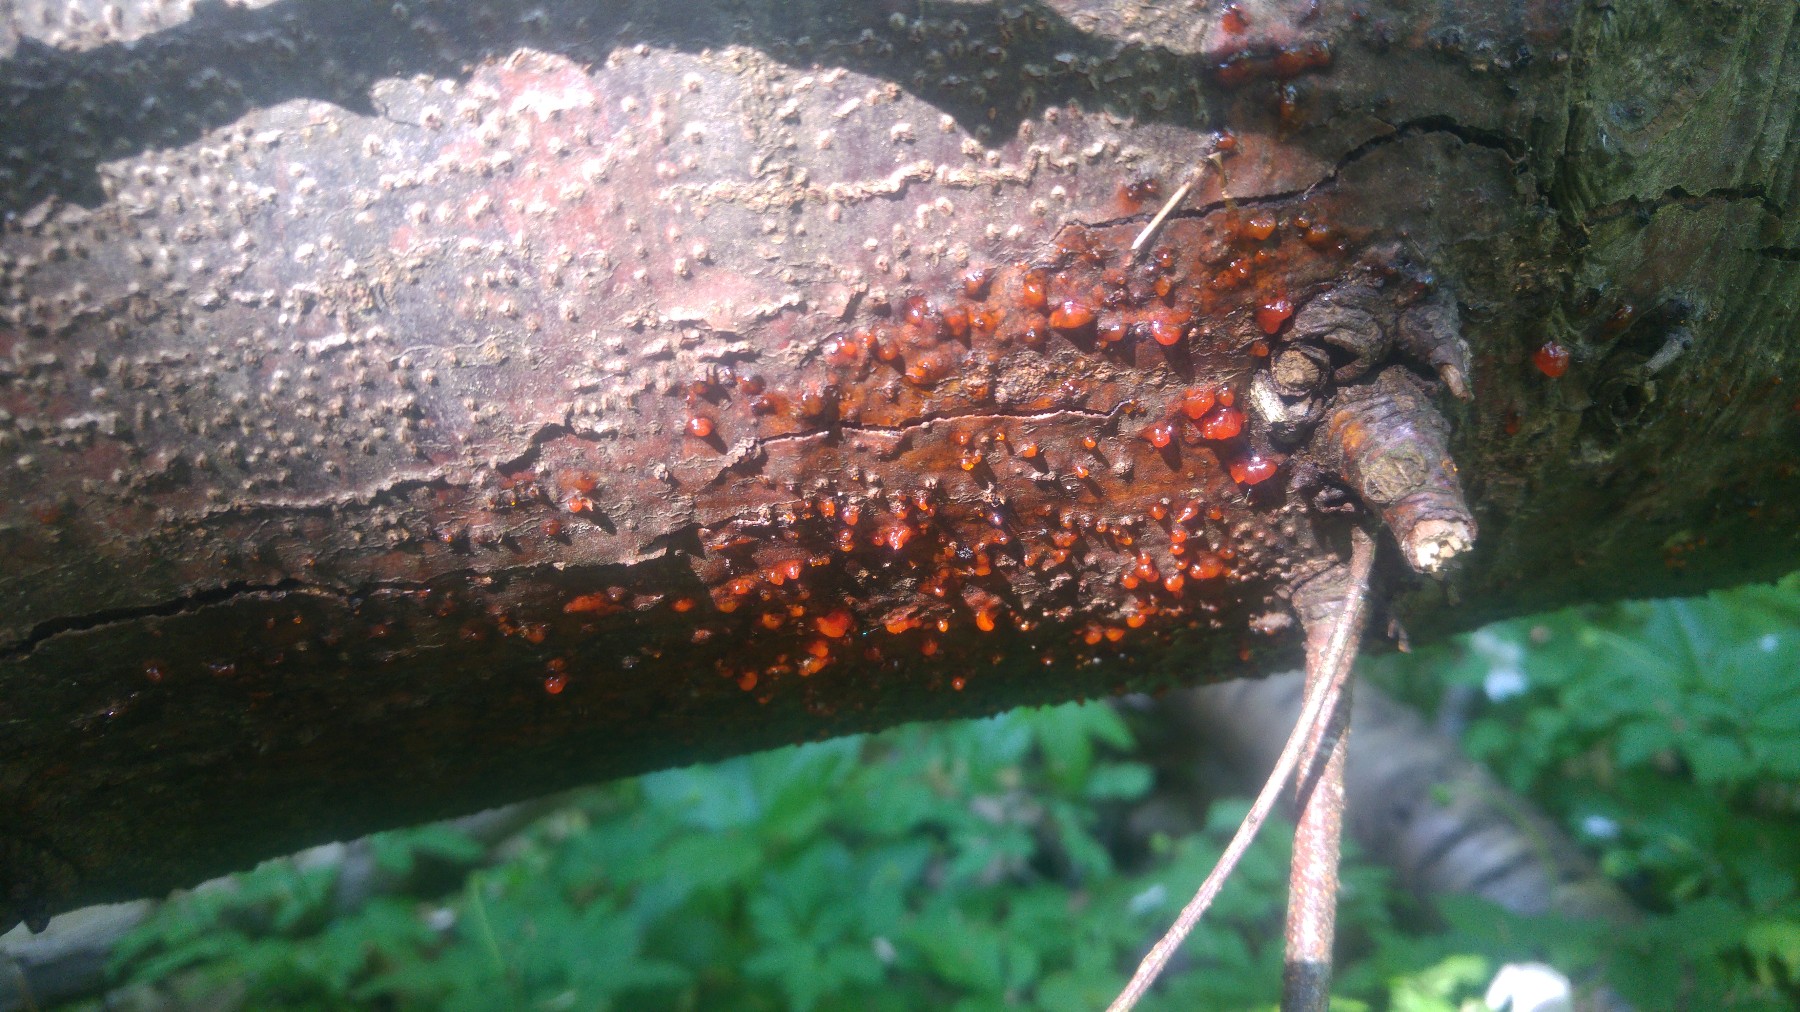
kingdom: Fungi
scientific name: Fungi
